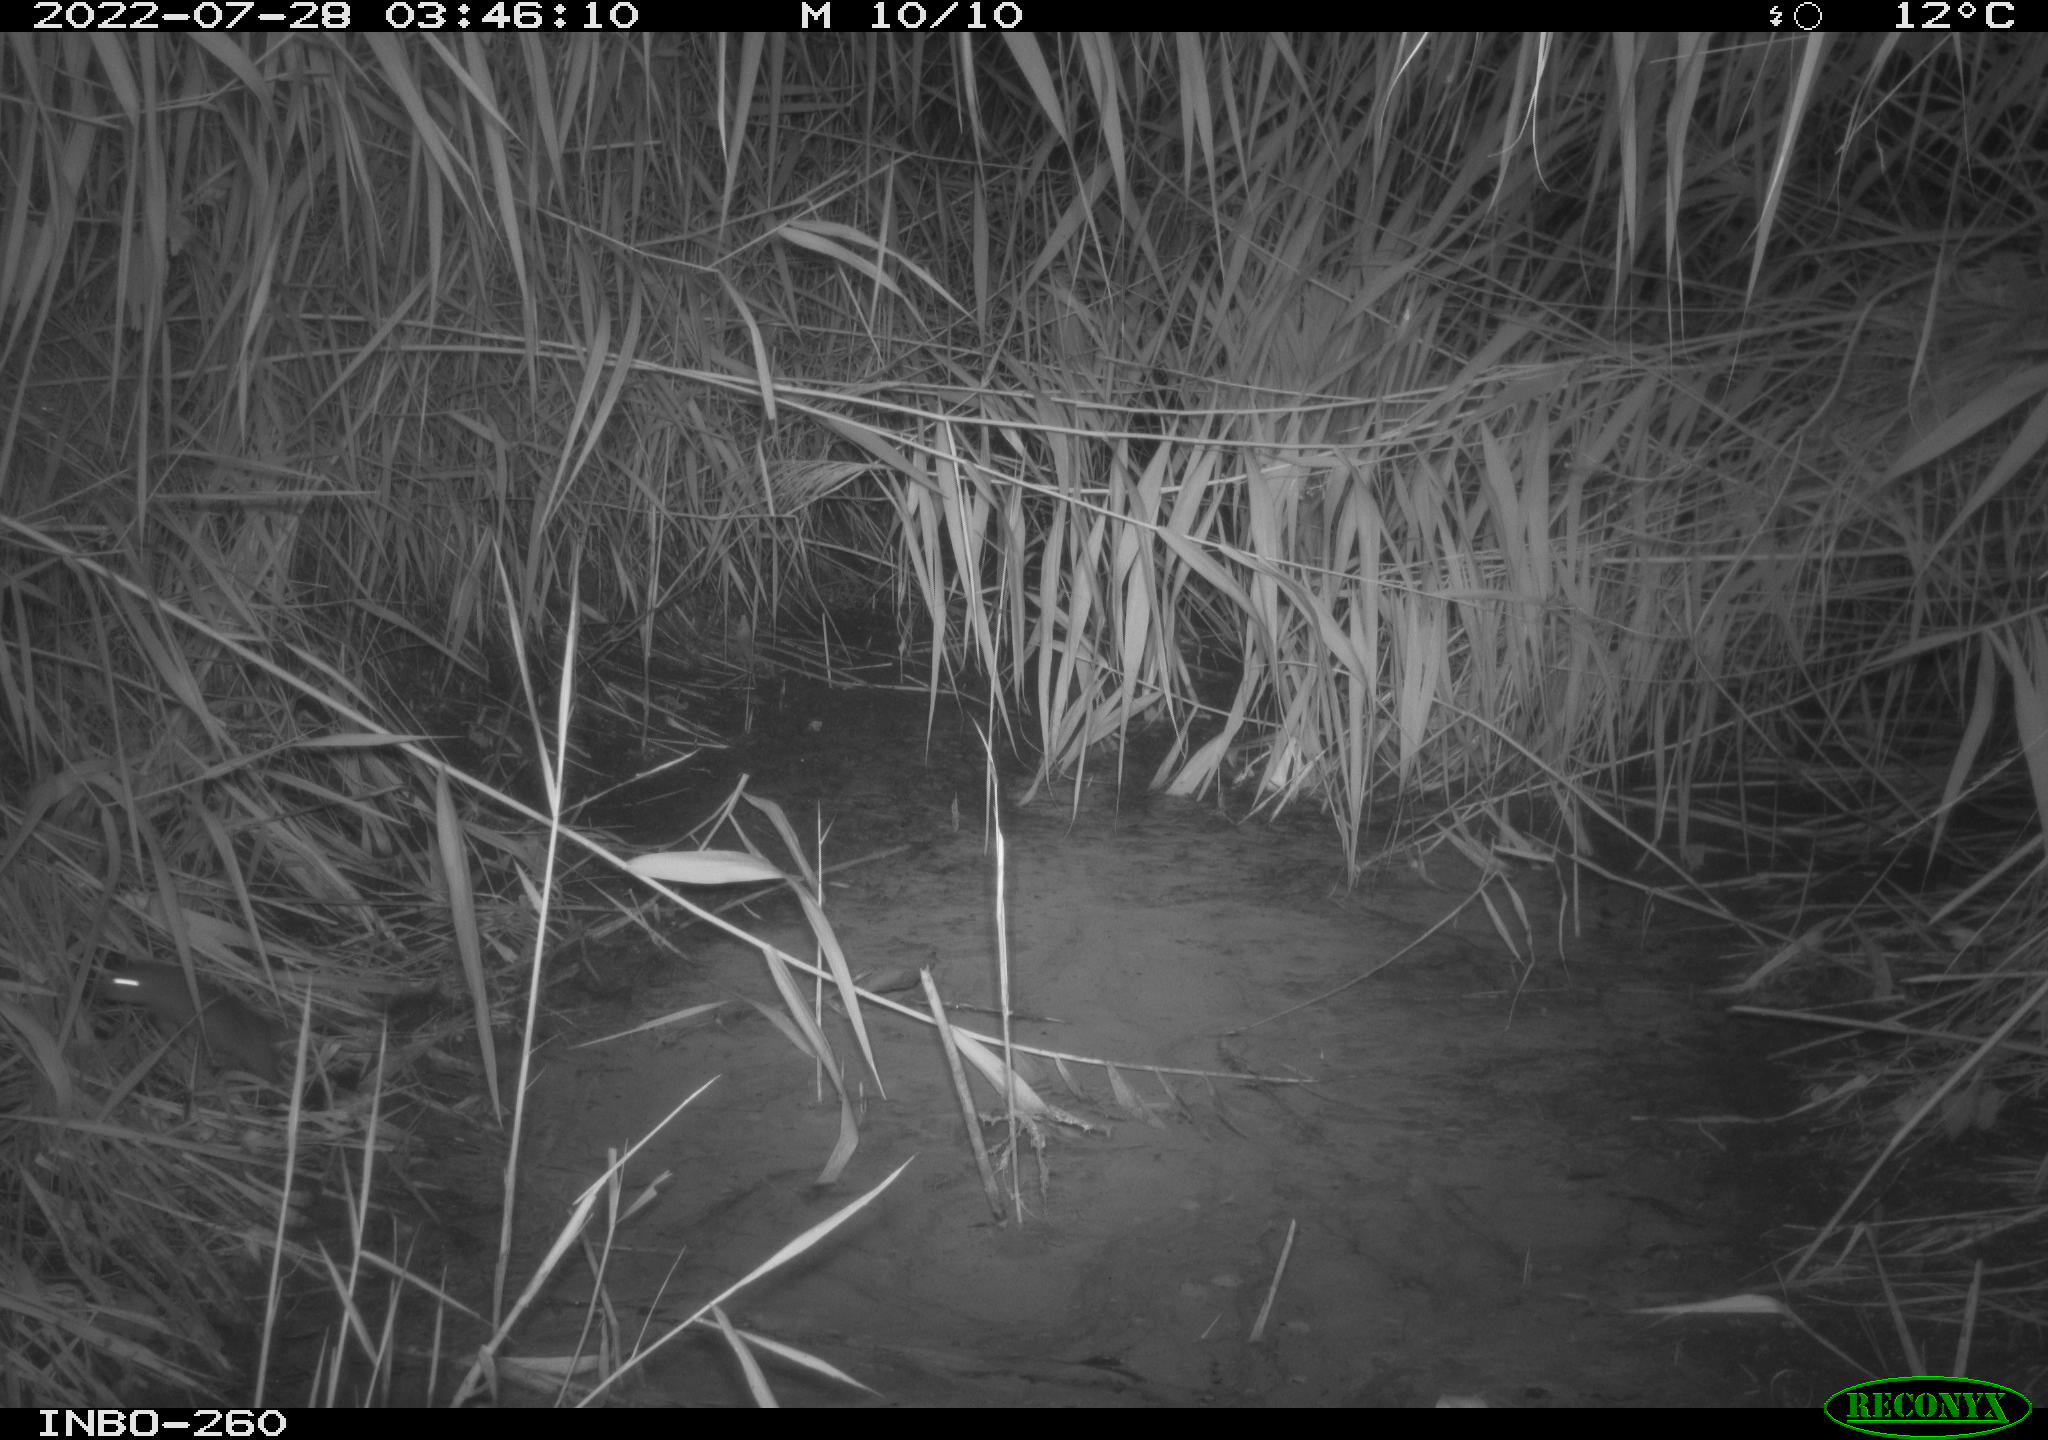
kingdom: Animalia
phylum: Chordata
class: Mammalia
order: Rodentia
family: Muridae
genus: Rattus
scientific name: Rattus norvegicus
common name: Brown rat
